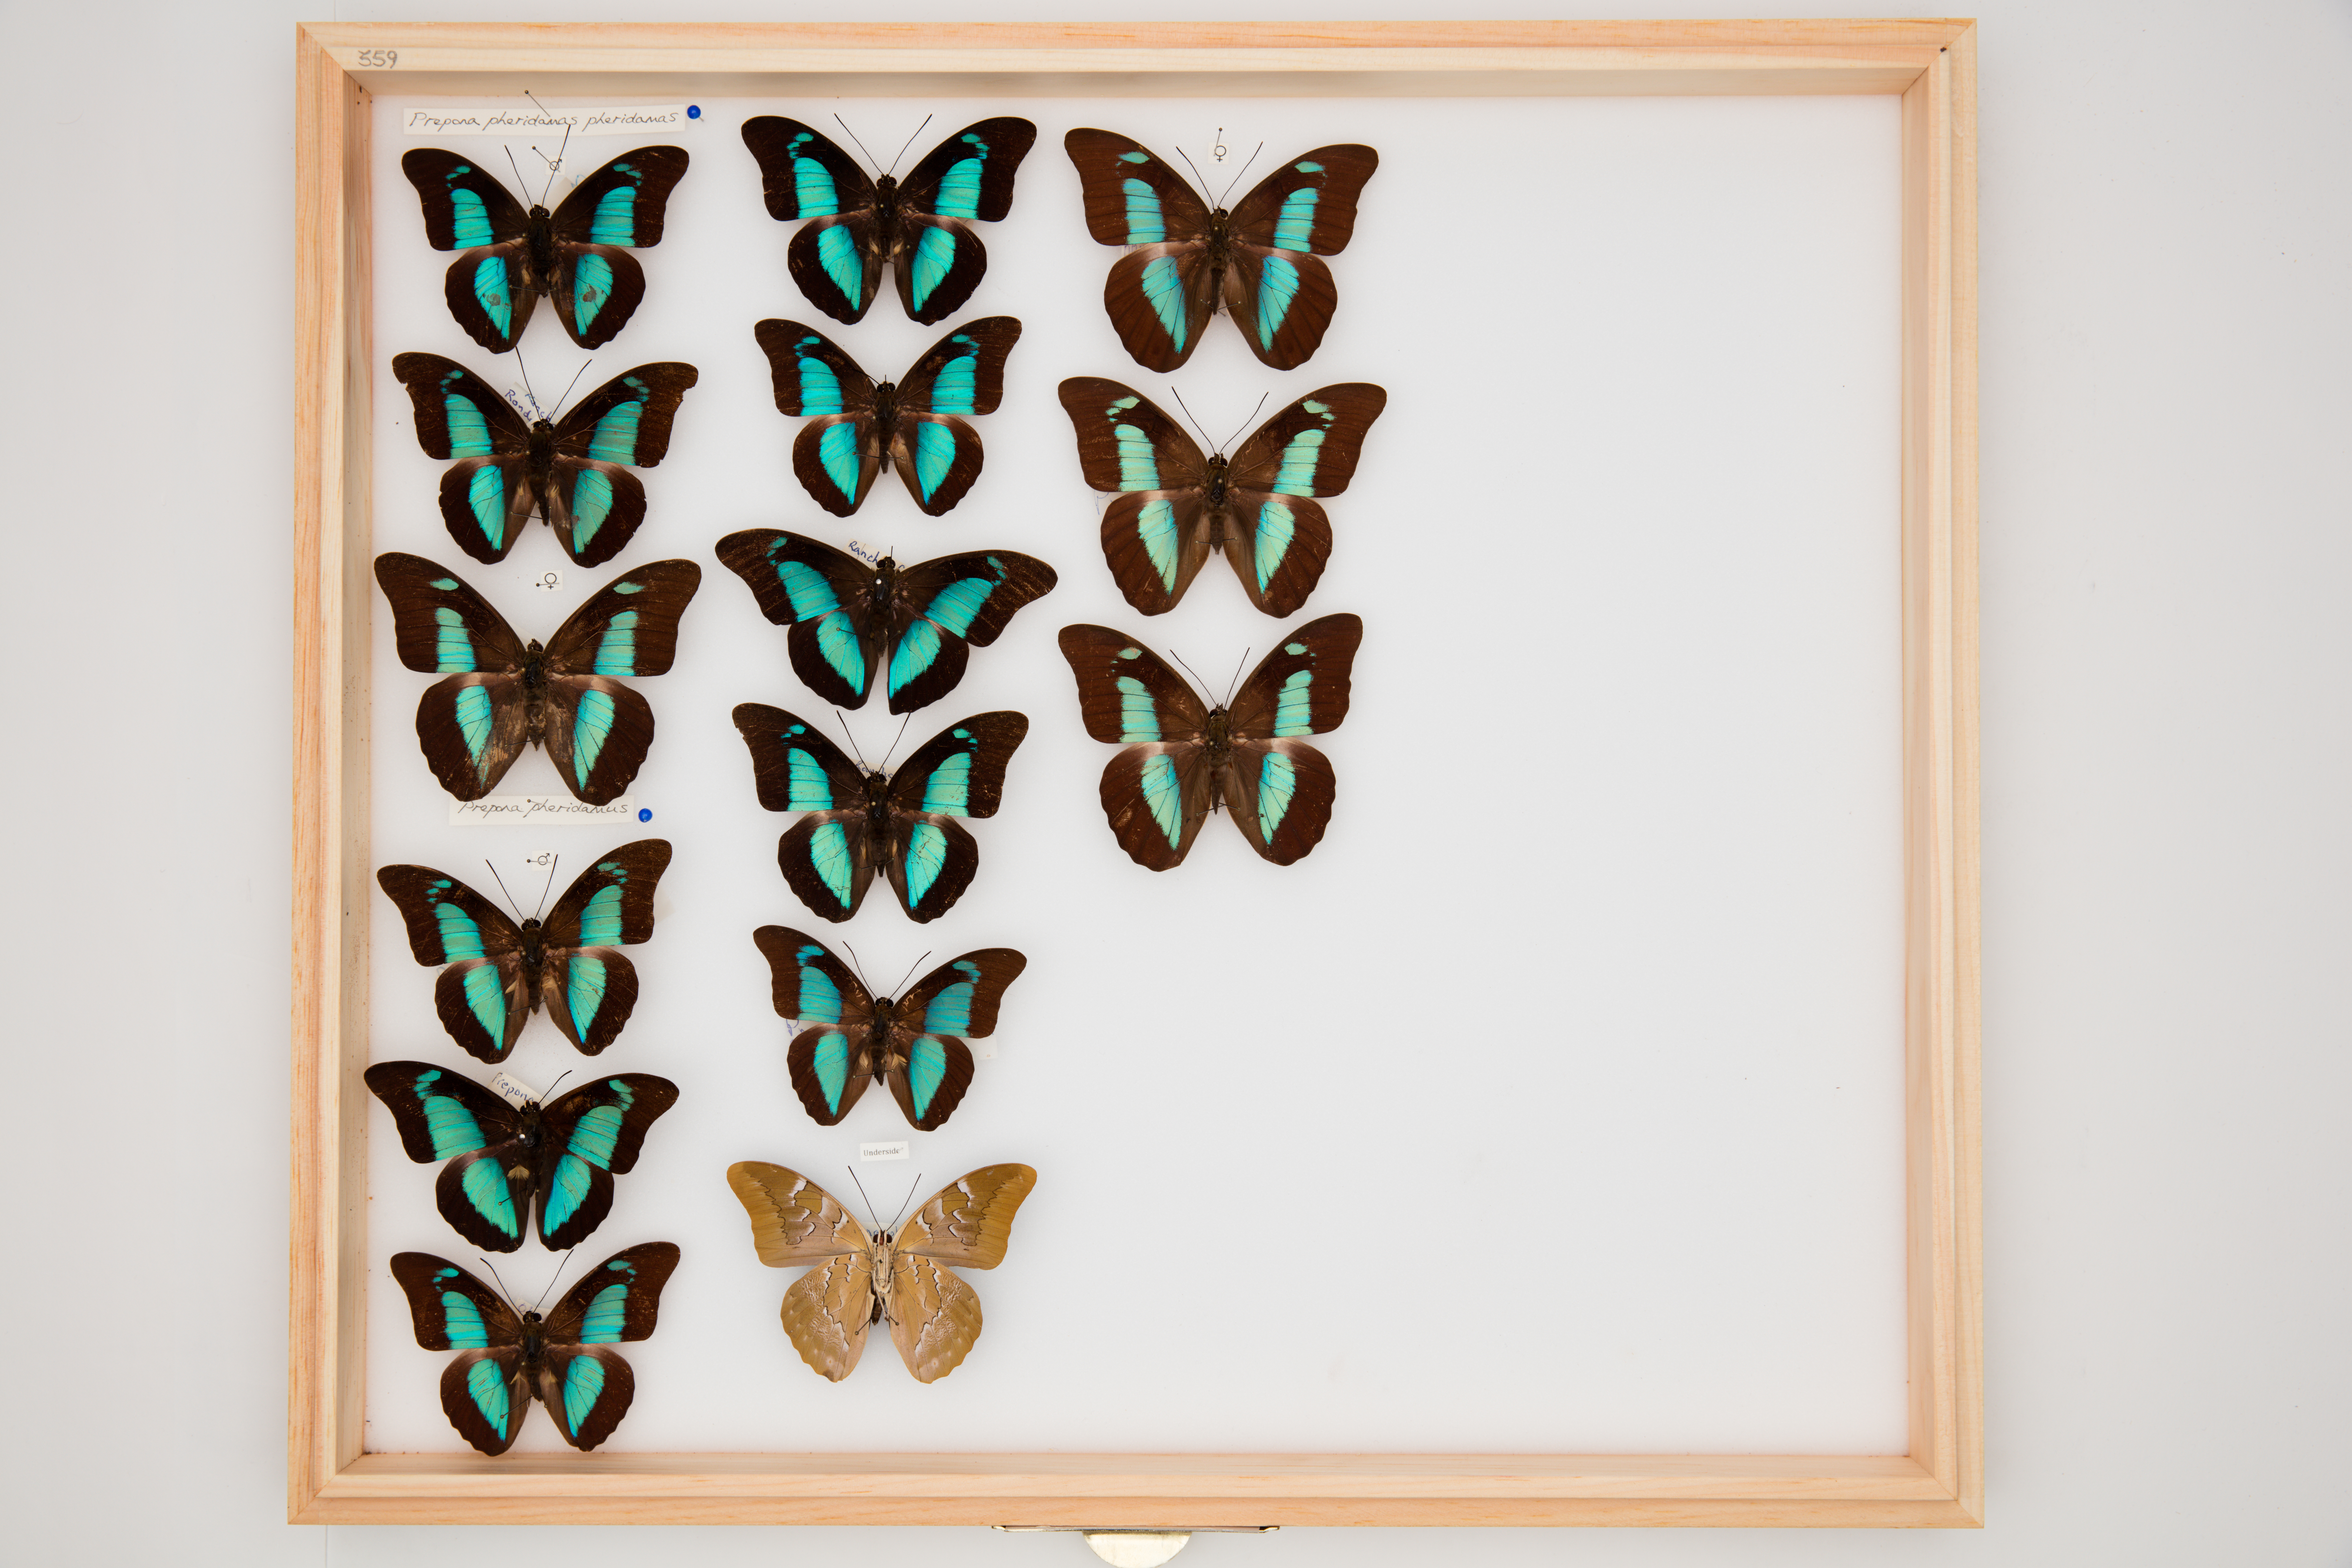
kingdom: Animalia
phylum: Arthropoda
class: Insecta
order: Lepidoptera
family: Nymphalidae
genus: Prepona
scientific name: Prepona pheridamas
